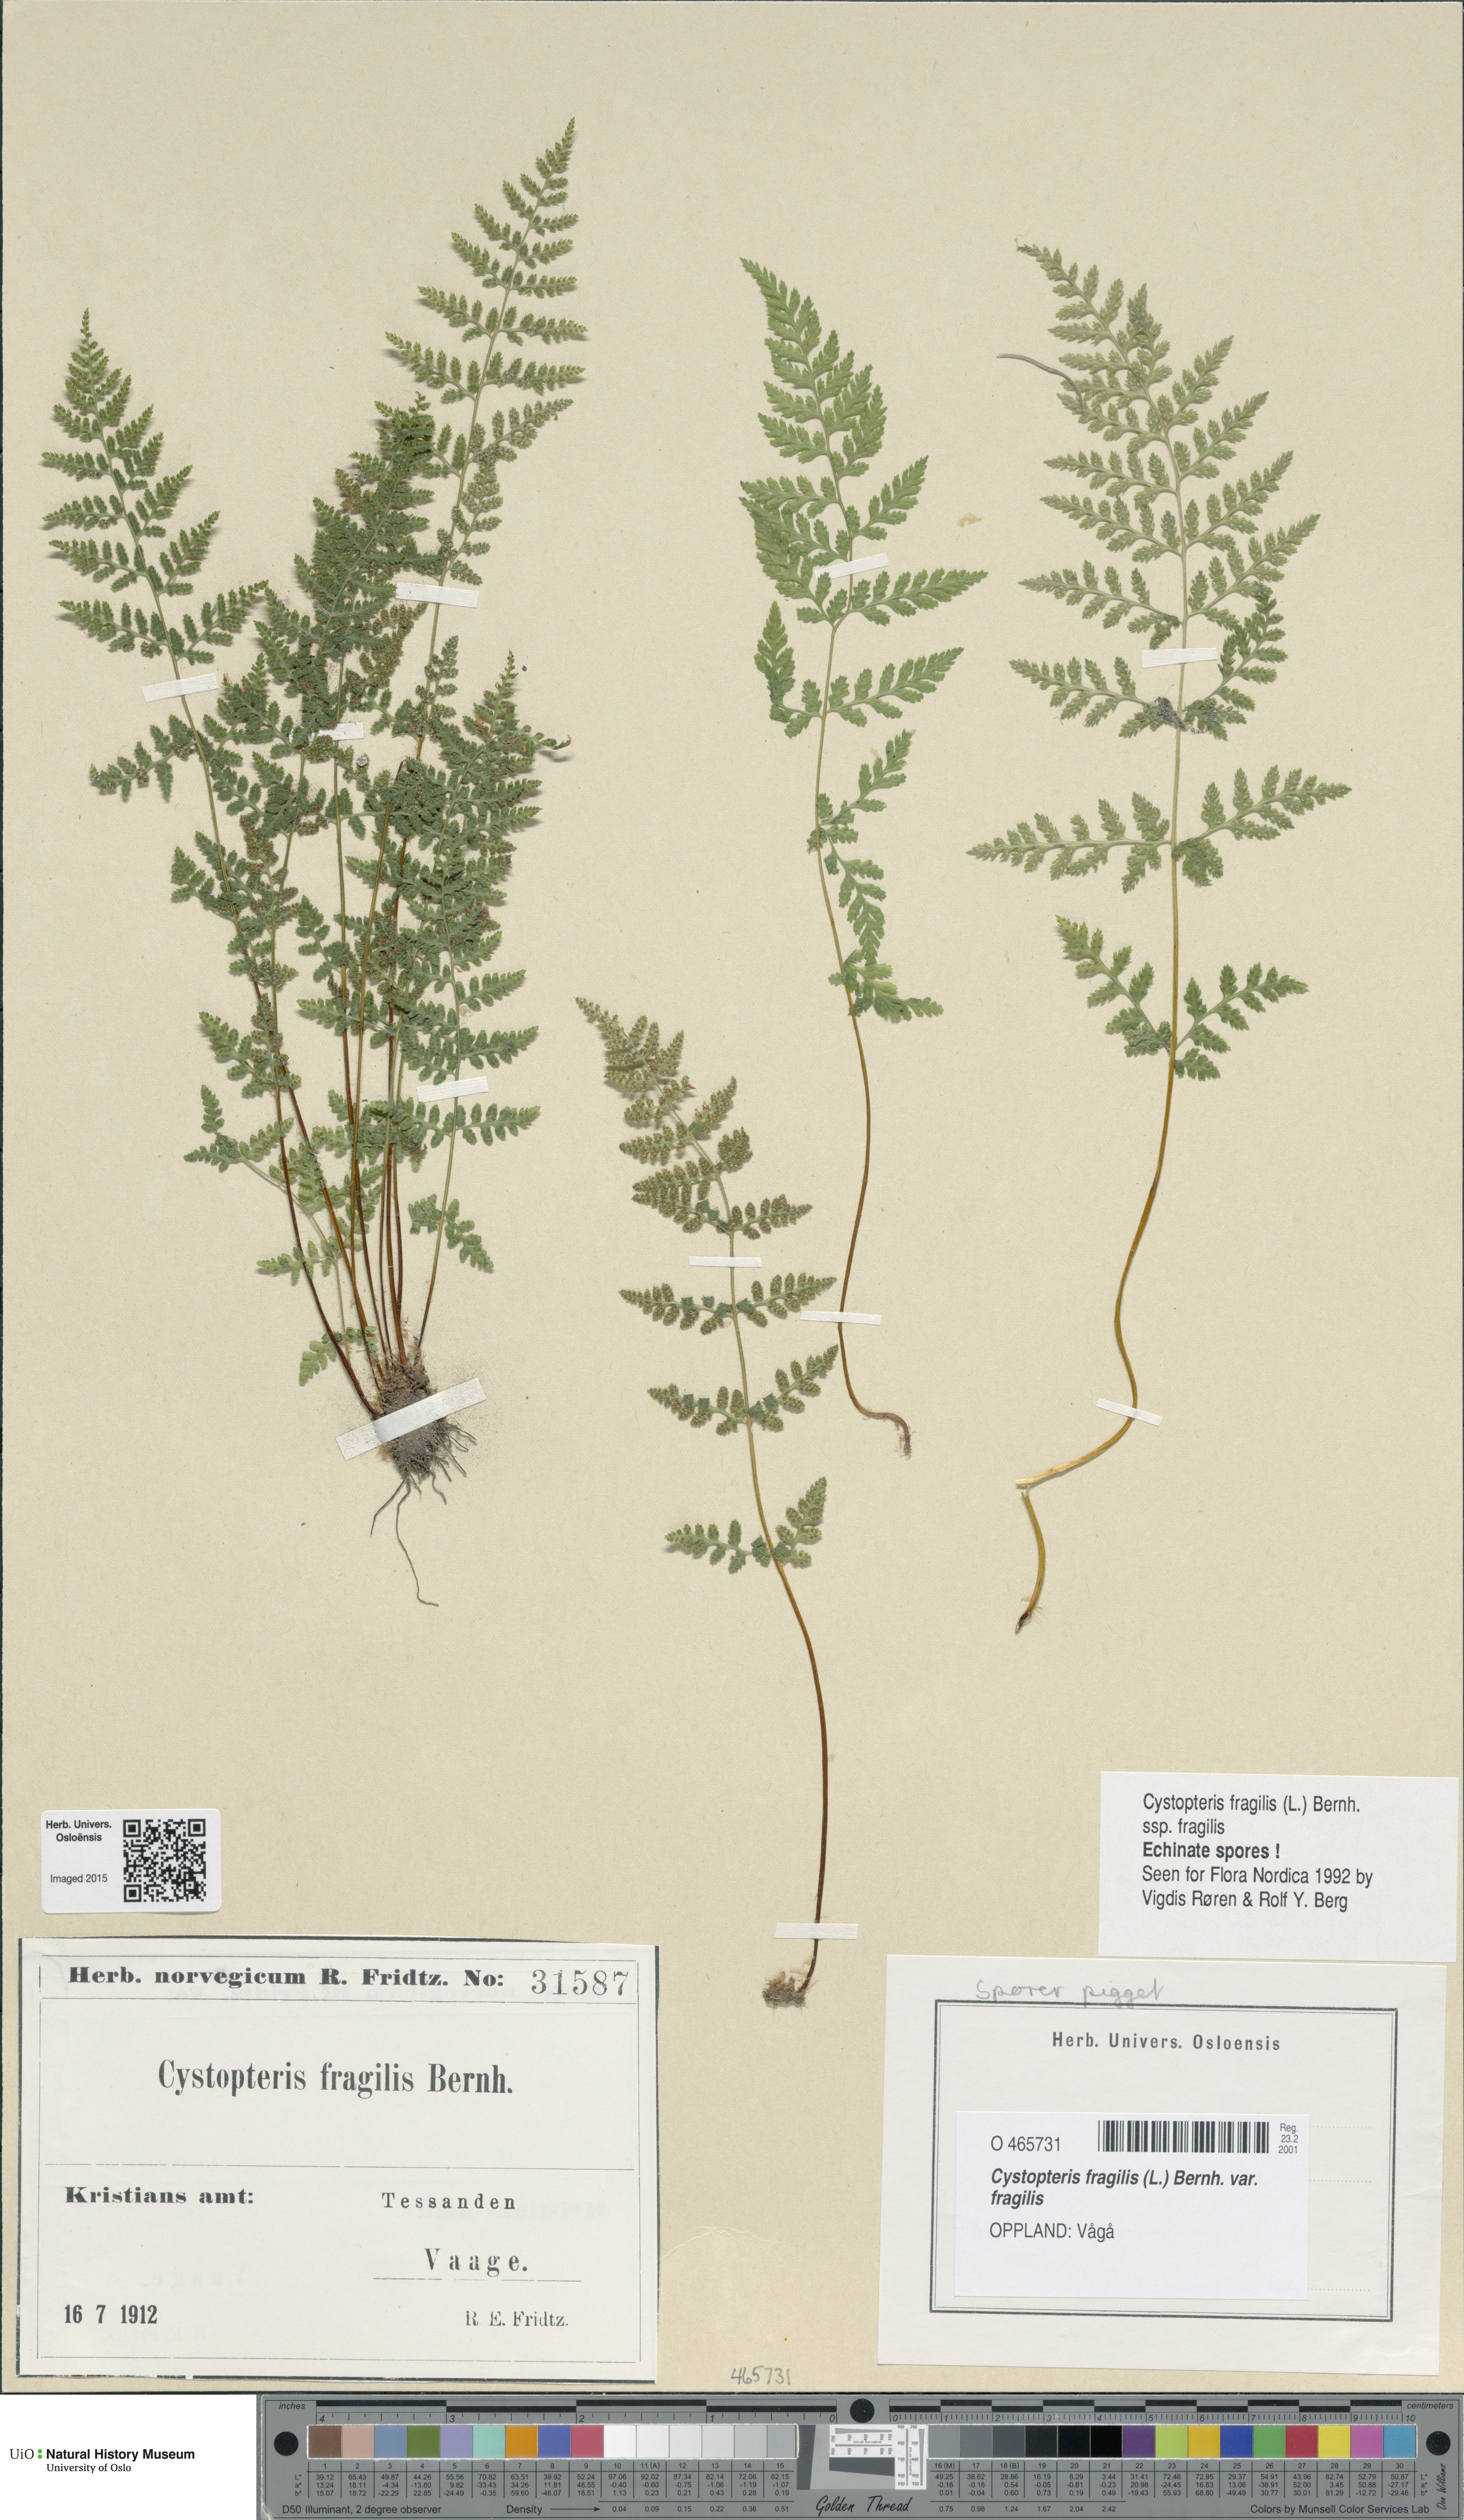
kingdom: Plantae
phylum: Tracheophyta
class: Polypodiopsida
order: Polypodiales
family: Cystopteridaceae
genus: Cystopteris
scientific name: Cystopteris fragilis
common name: Brittle bladder fern
